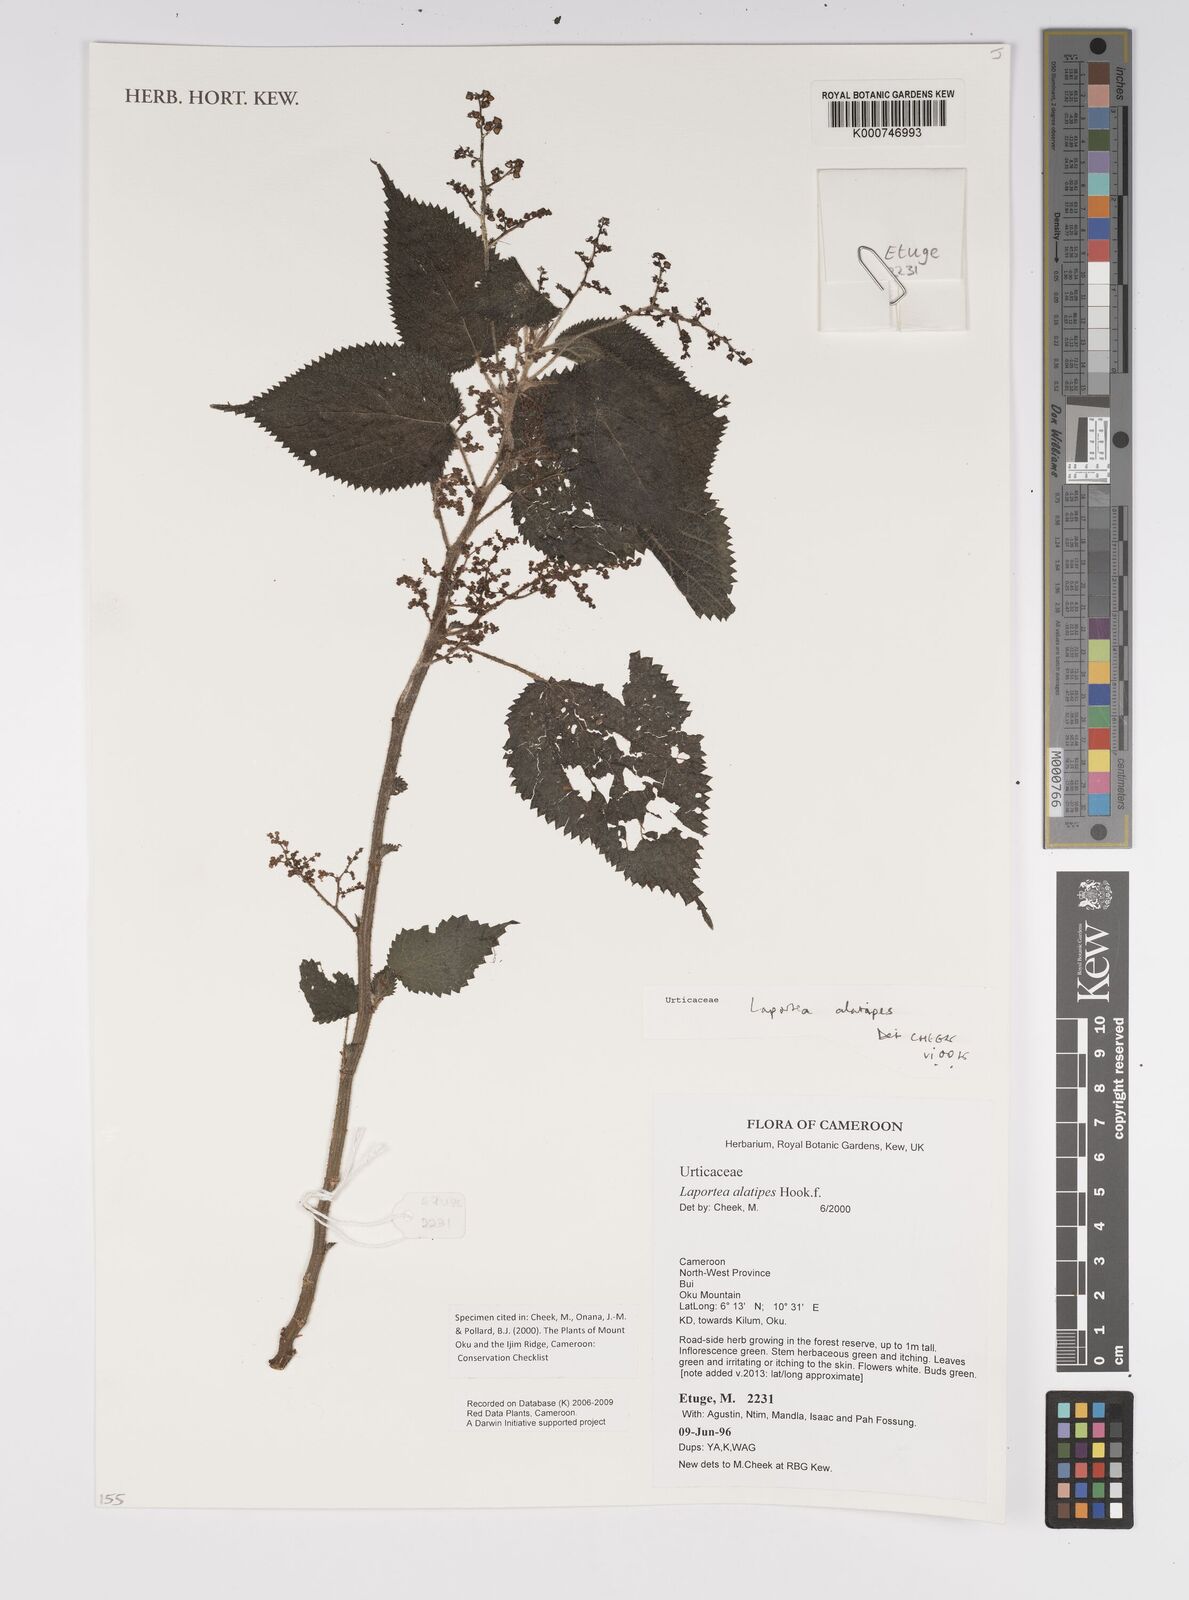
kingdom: Plantae
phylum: Tracheophyta
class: Magnoliopsida
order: Rosales
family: Urticaceae
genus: Laportea
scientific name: Laportea alatipes
